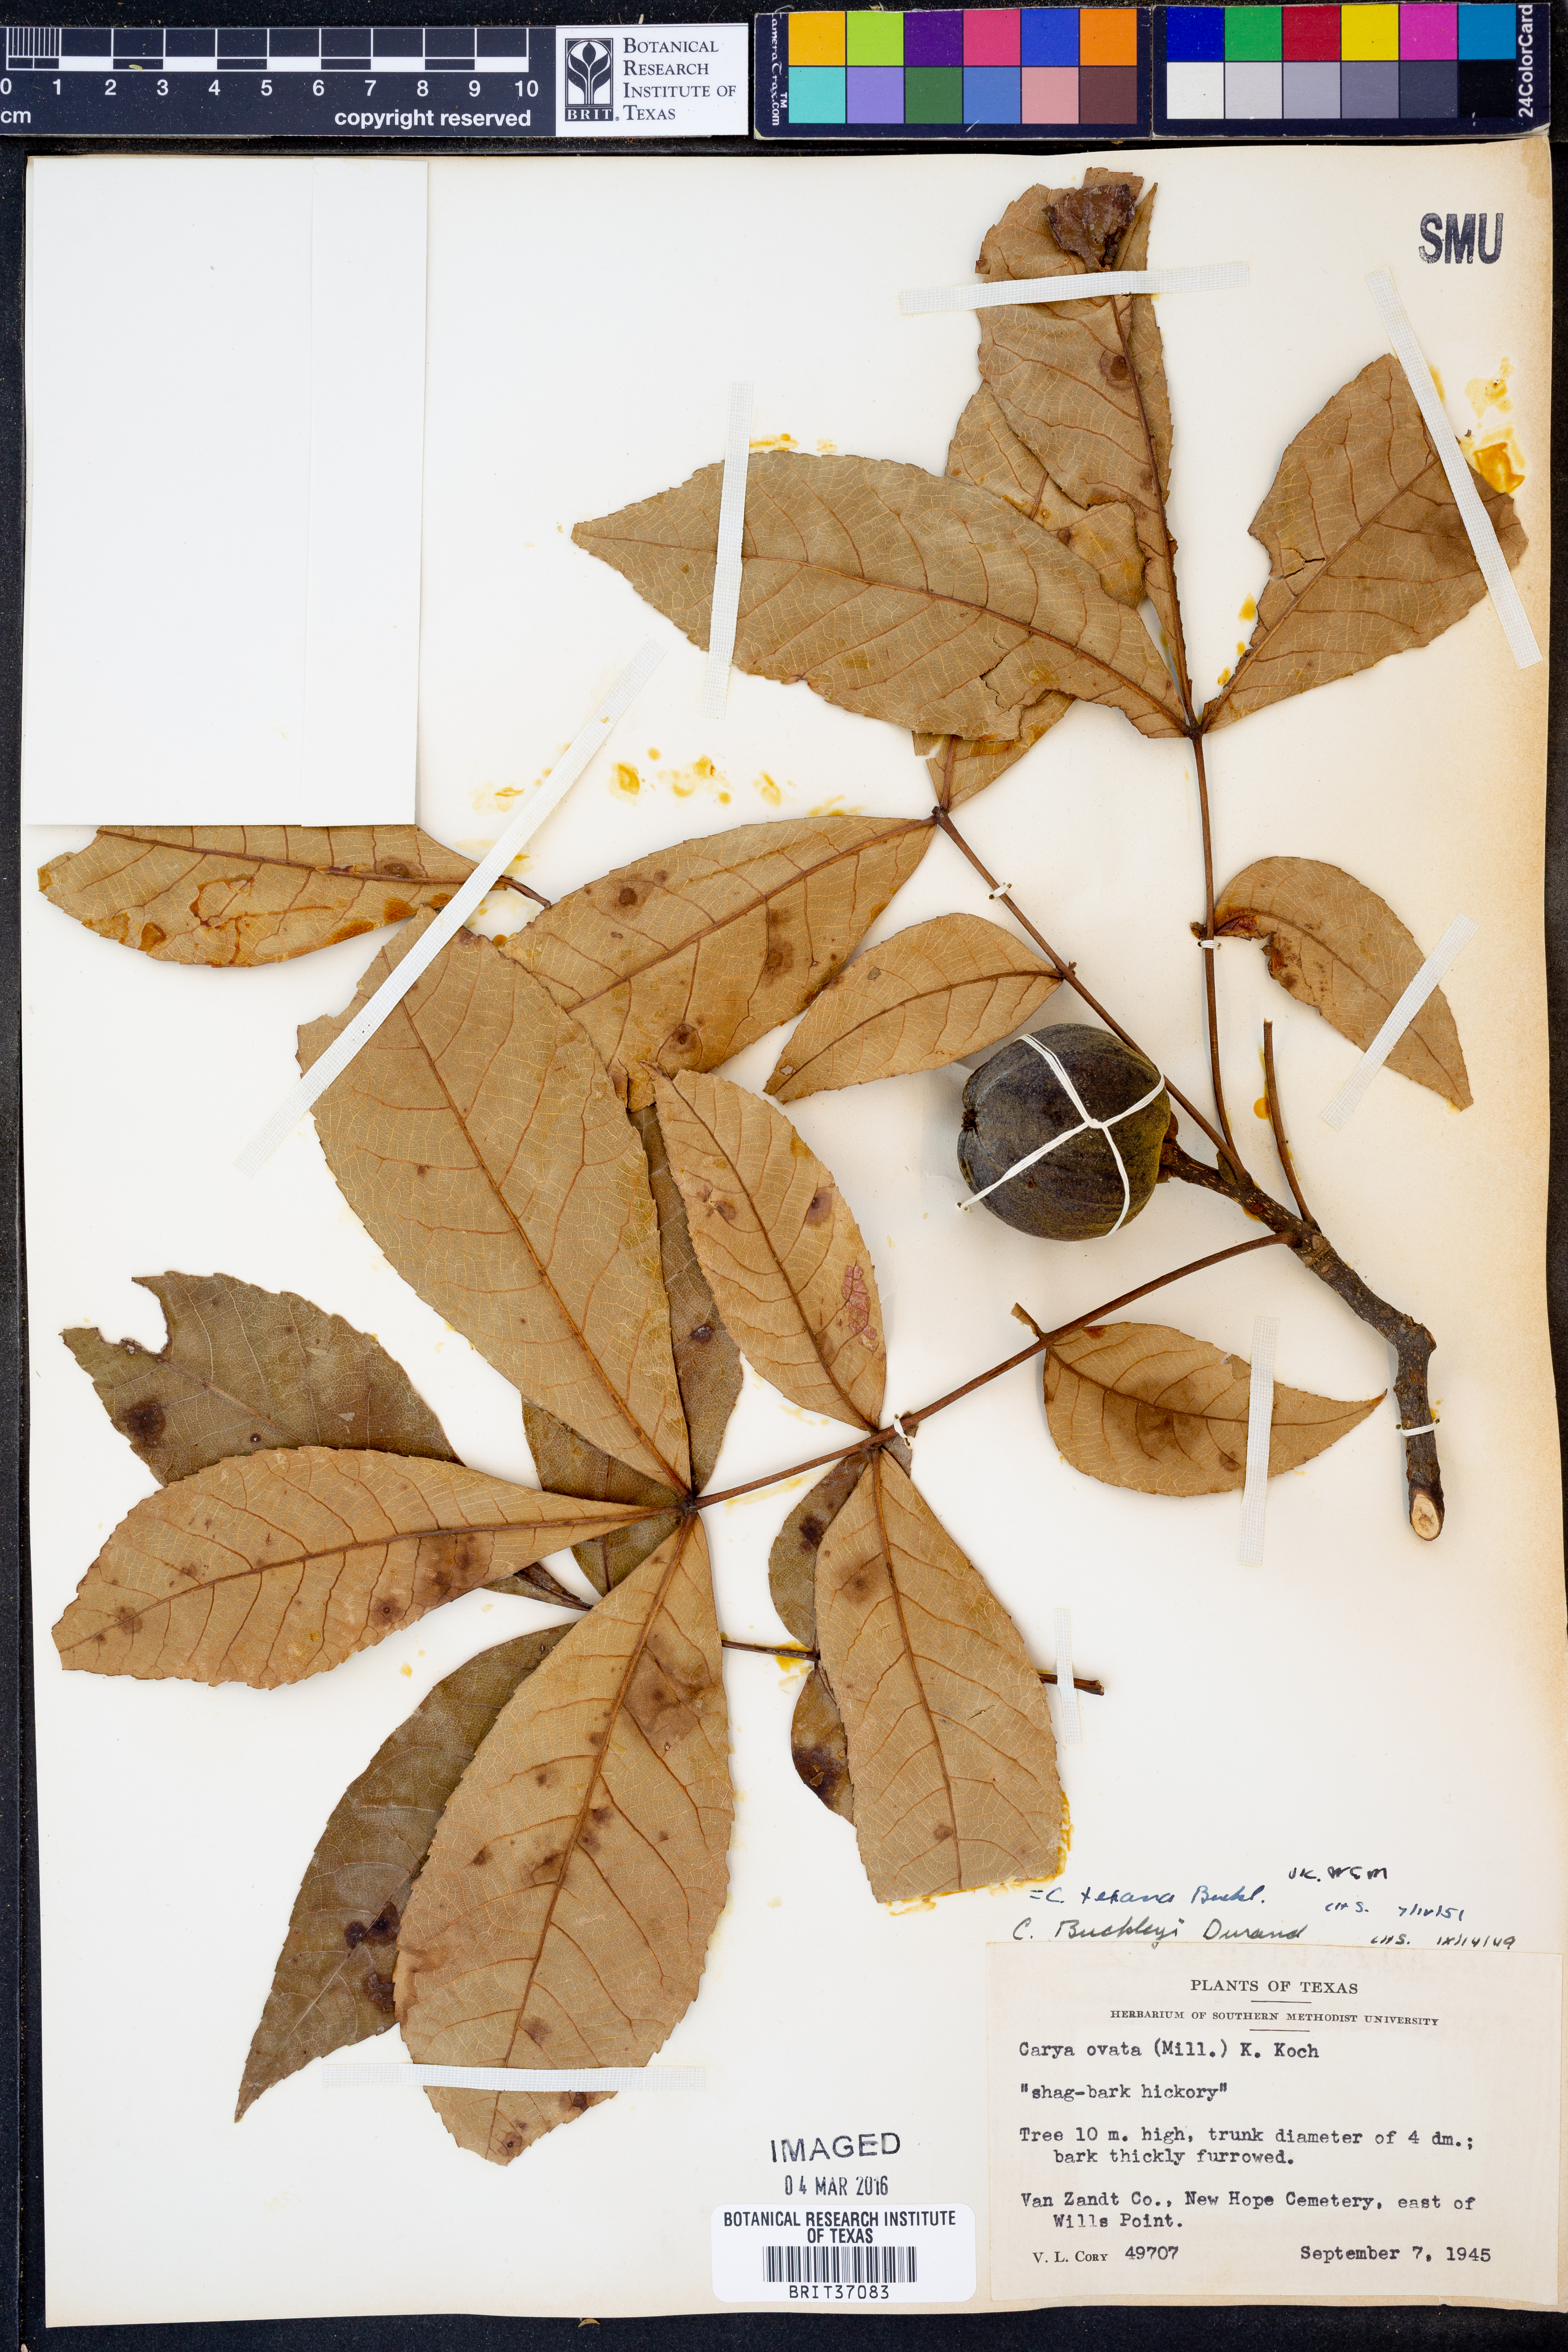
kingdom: Plantae
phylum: Tracheophyta
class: Magnoliopsida
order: Fagales
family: Juglandaceae
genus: Carya
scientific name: Carya texana
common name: Black hickory
